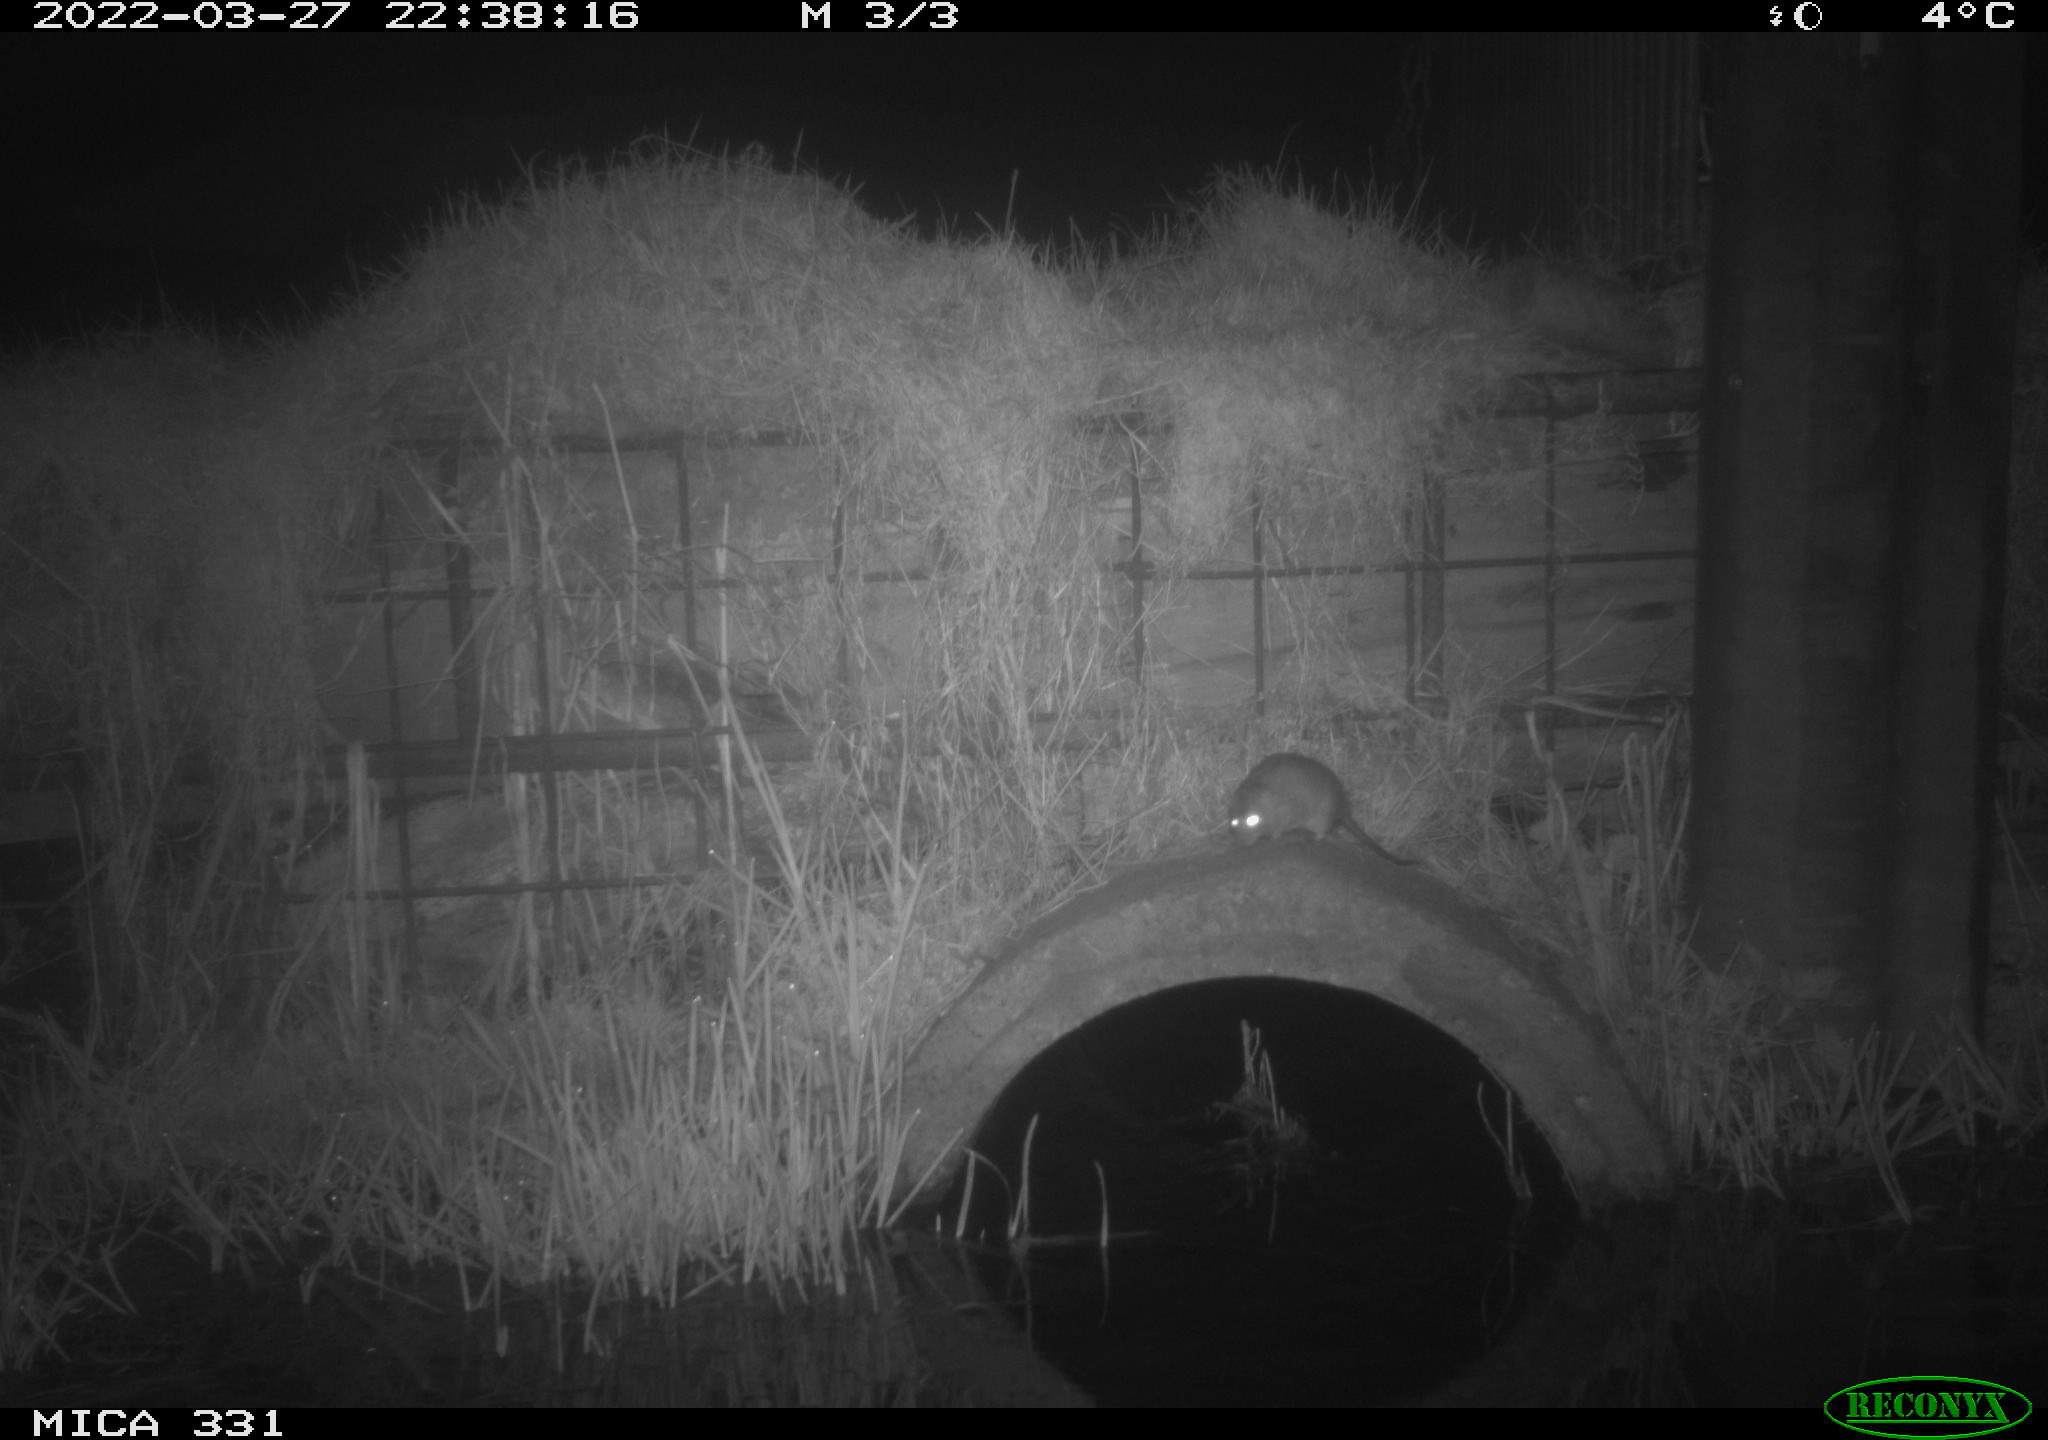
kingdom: Animalia
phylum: Chordata
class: Mammalia
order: Rodentia
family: Muridae
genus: Rattus
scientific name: Rattus norvegicus
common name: Brown rat
